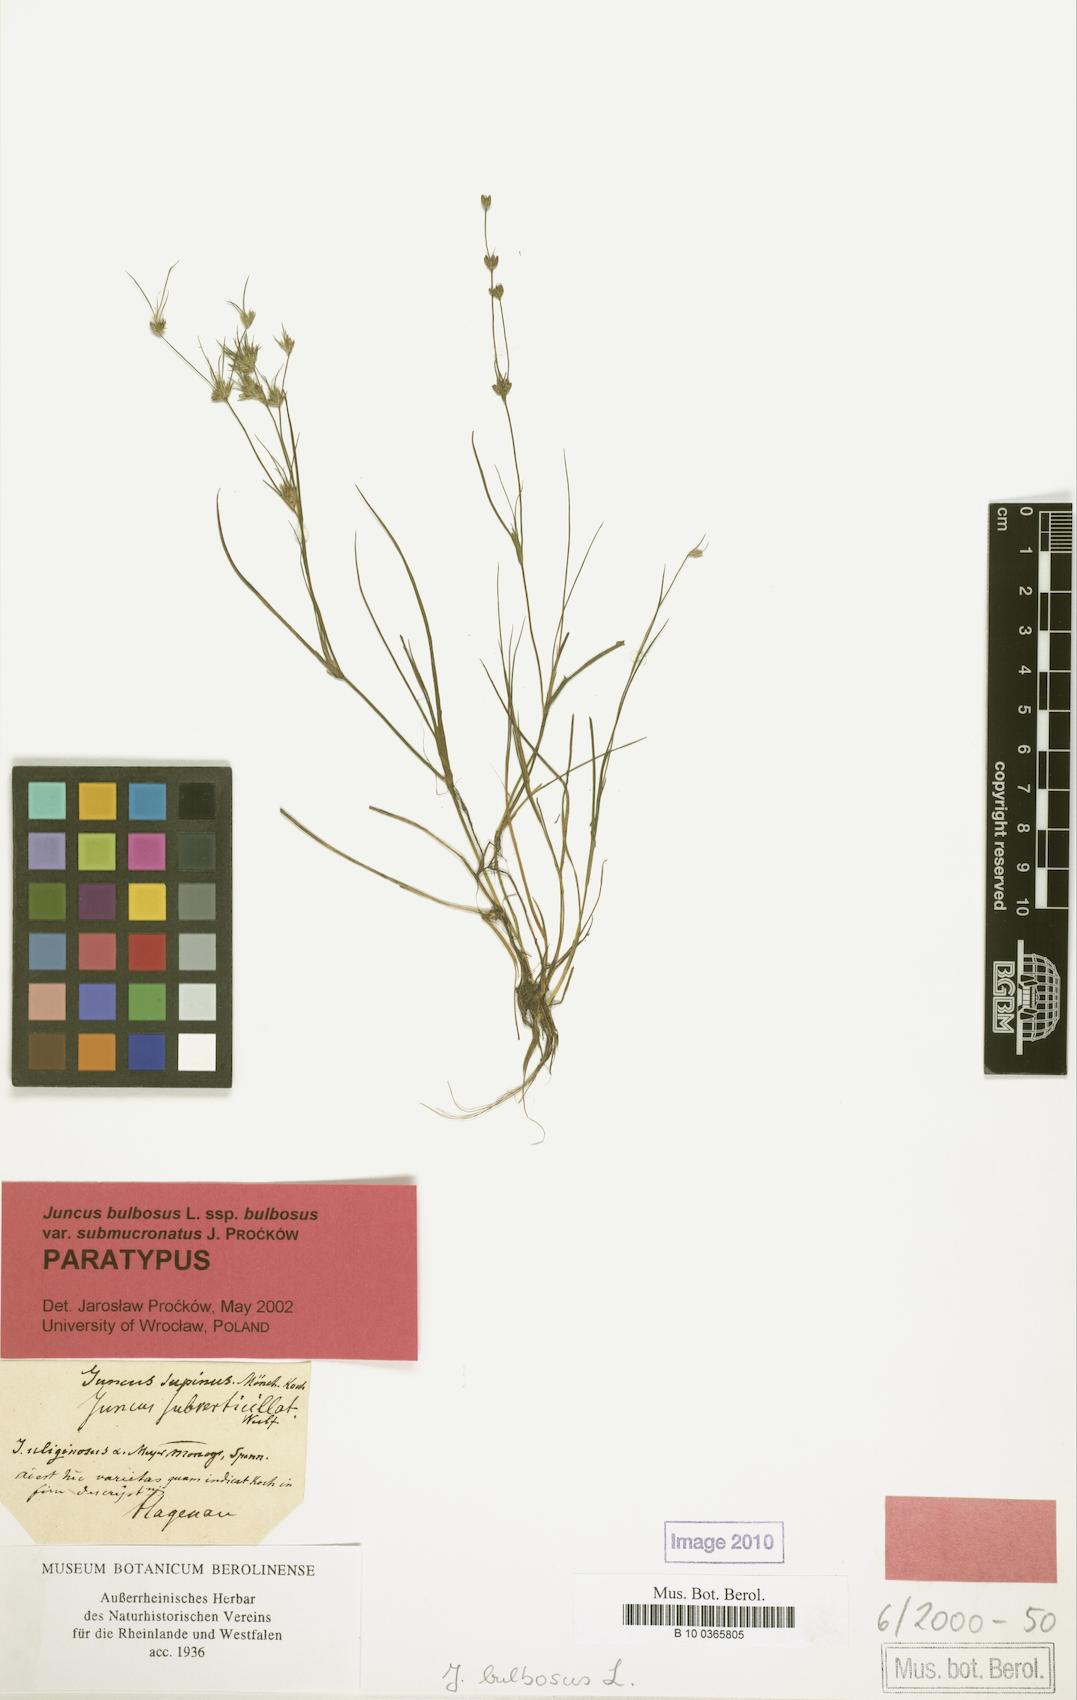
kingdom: Plantae
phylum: Tracheophyta
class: Liliopsida
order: Poales
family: Juncaceae
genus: Juncus
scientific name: Juncus bulbosus
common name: Bulbous rush
